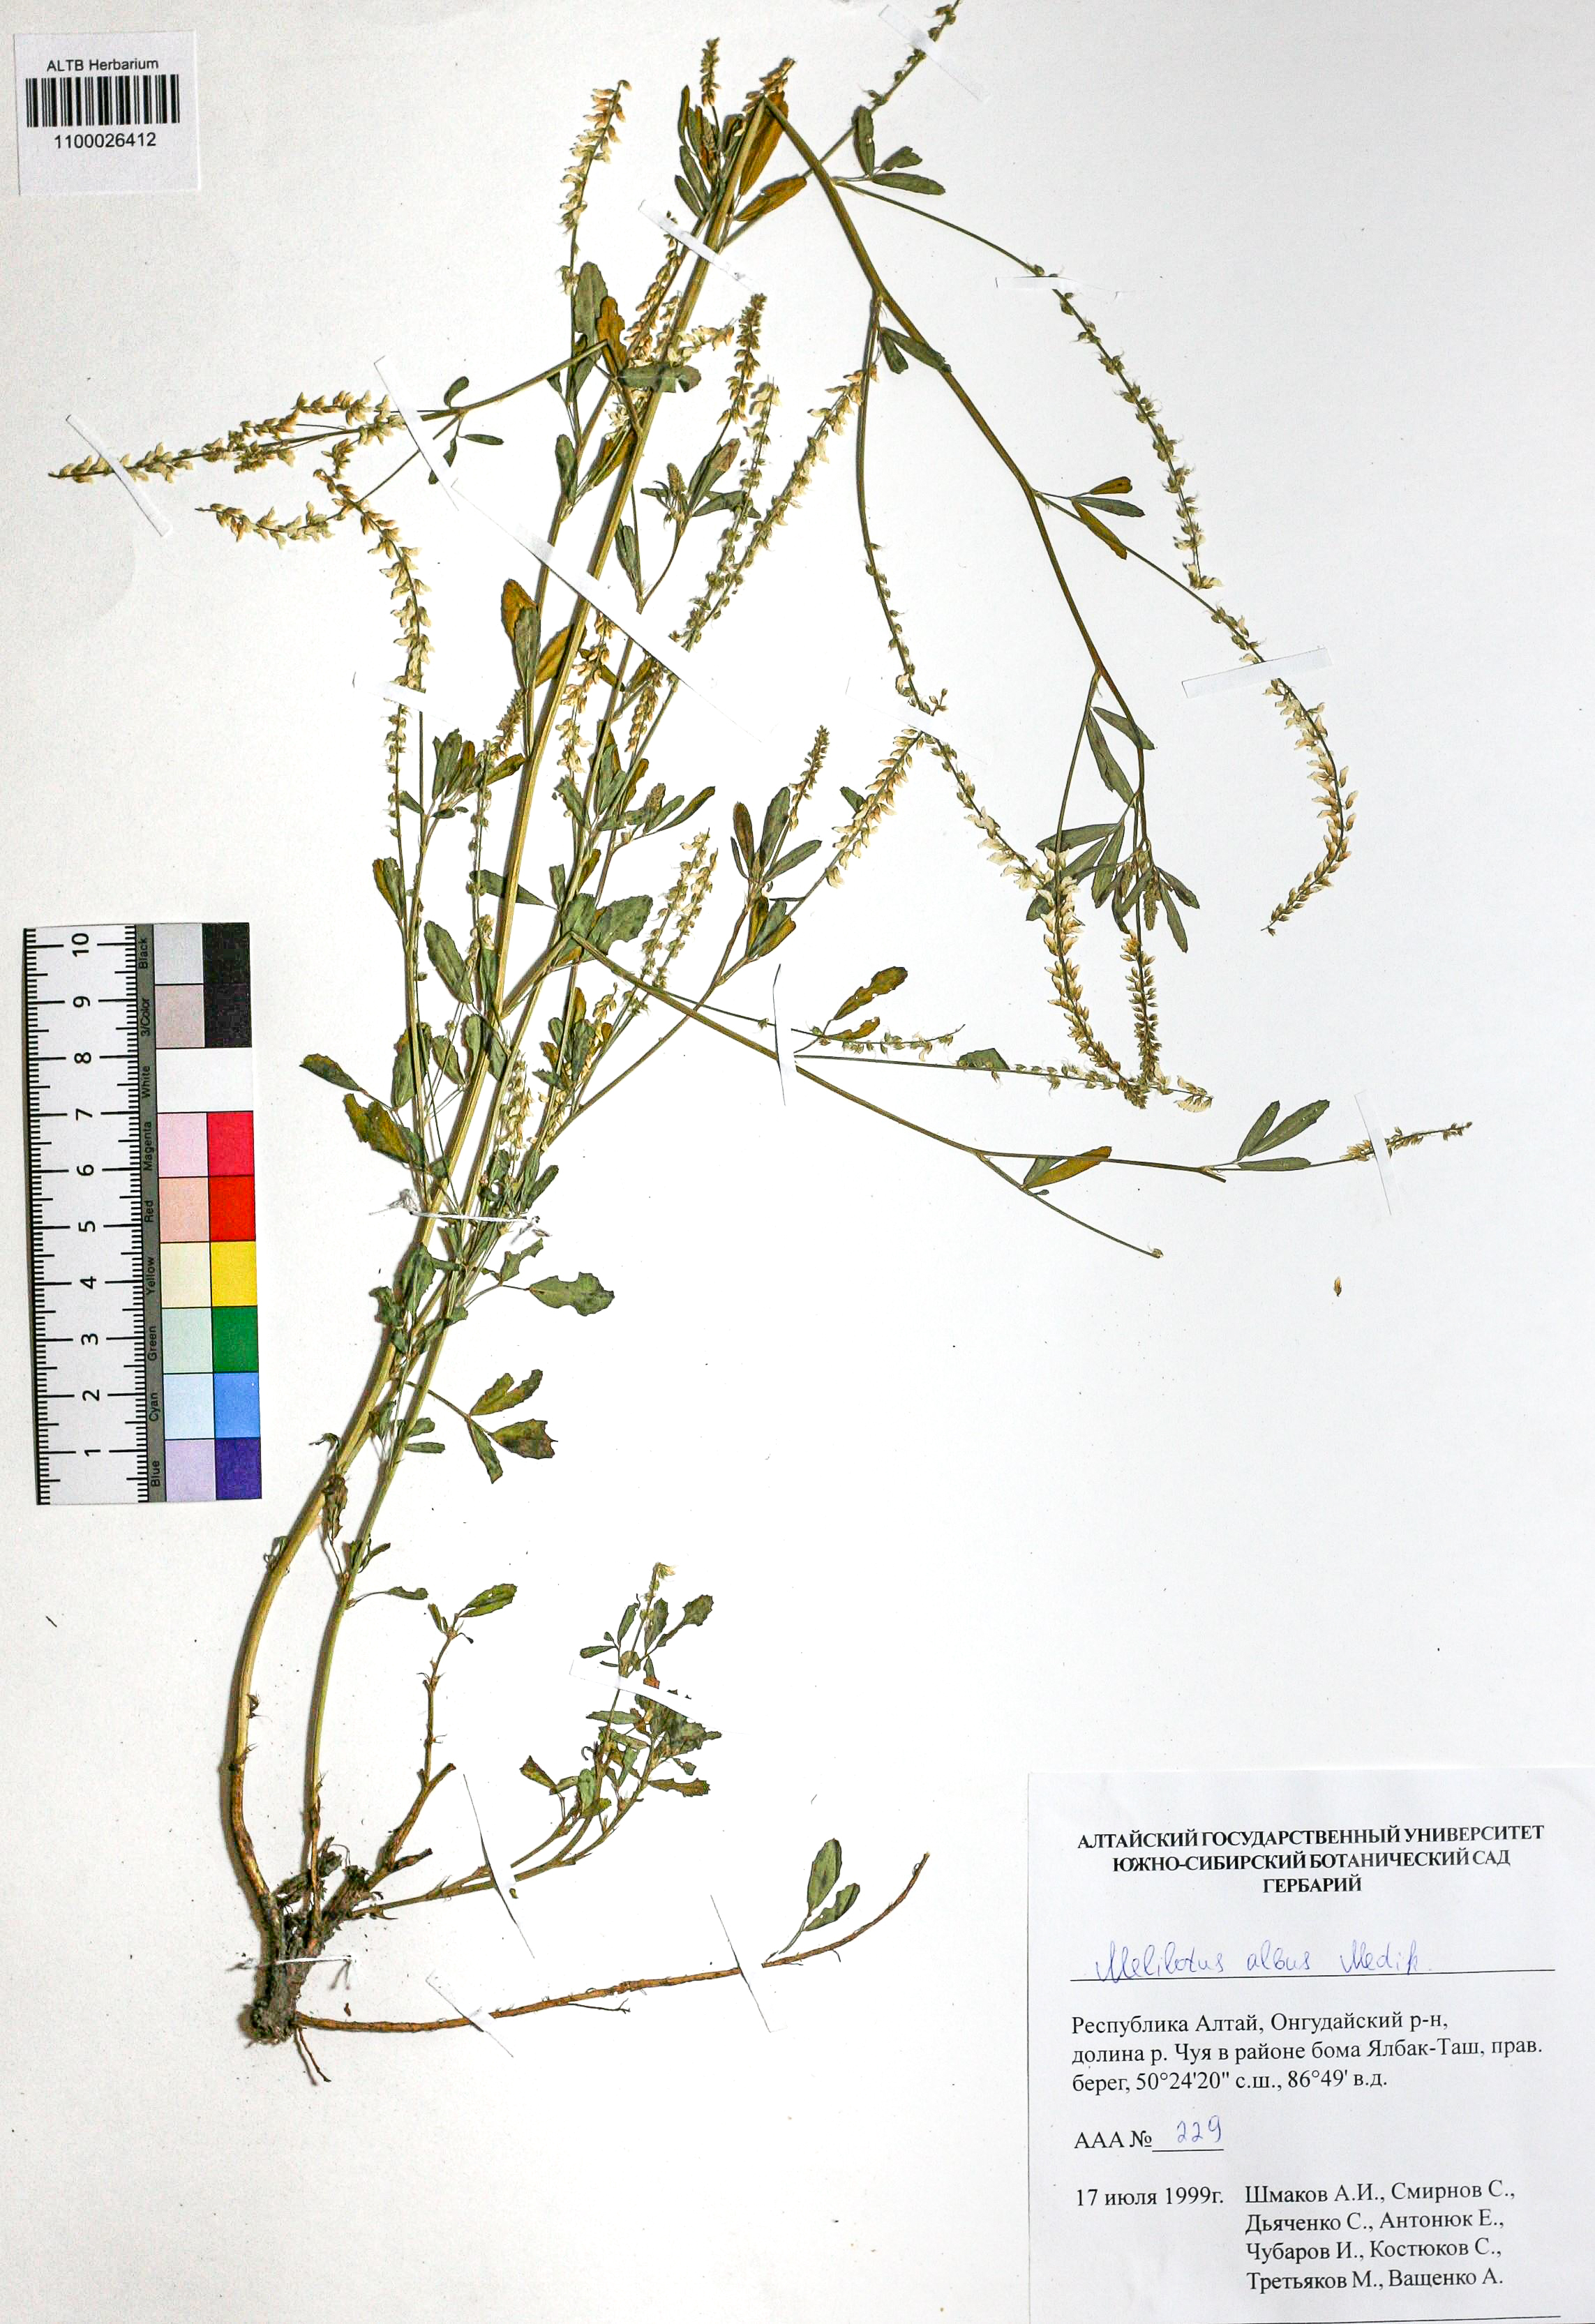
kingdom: Plantae
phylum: Tracheophyta
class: Magnoliopsida
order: Fabales
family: Fabaceae
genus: Melilotus
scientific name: Melilotus albus
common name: White melilot
